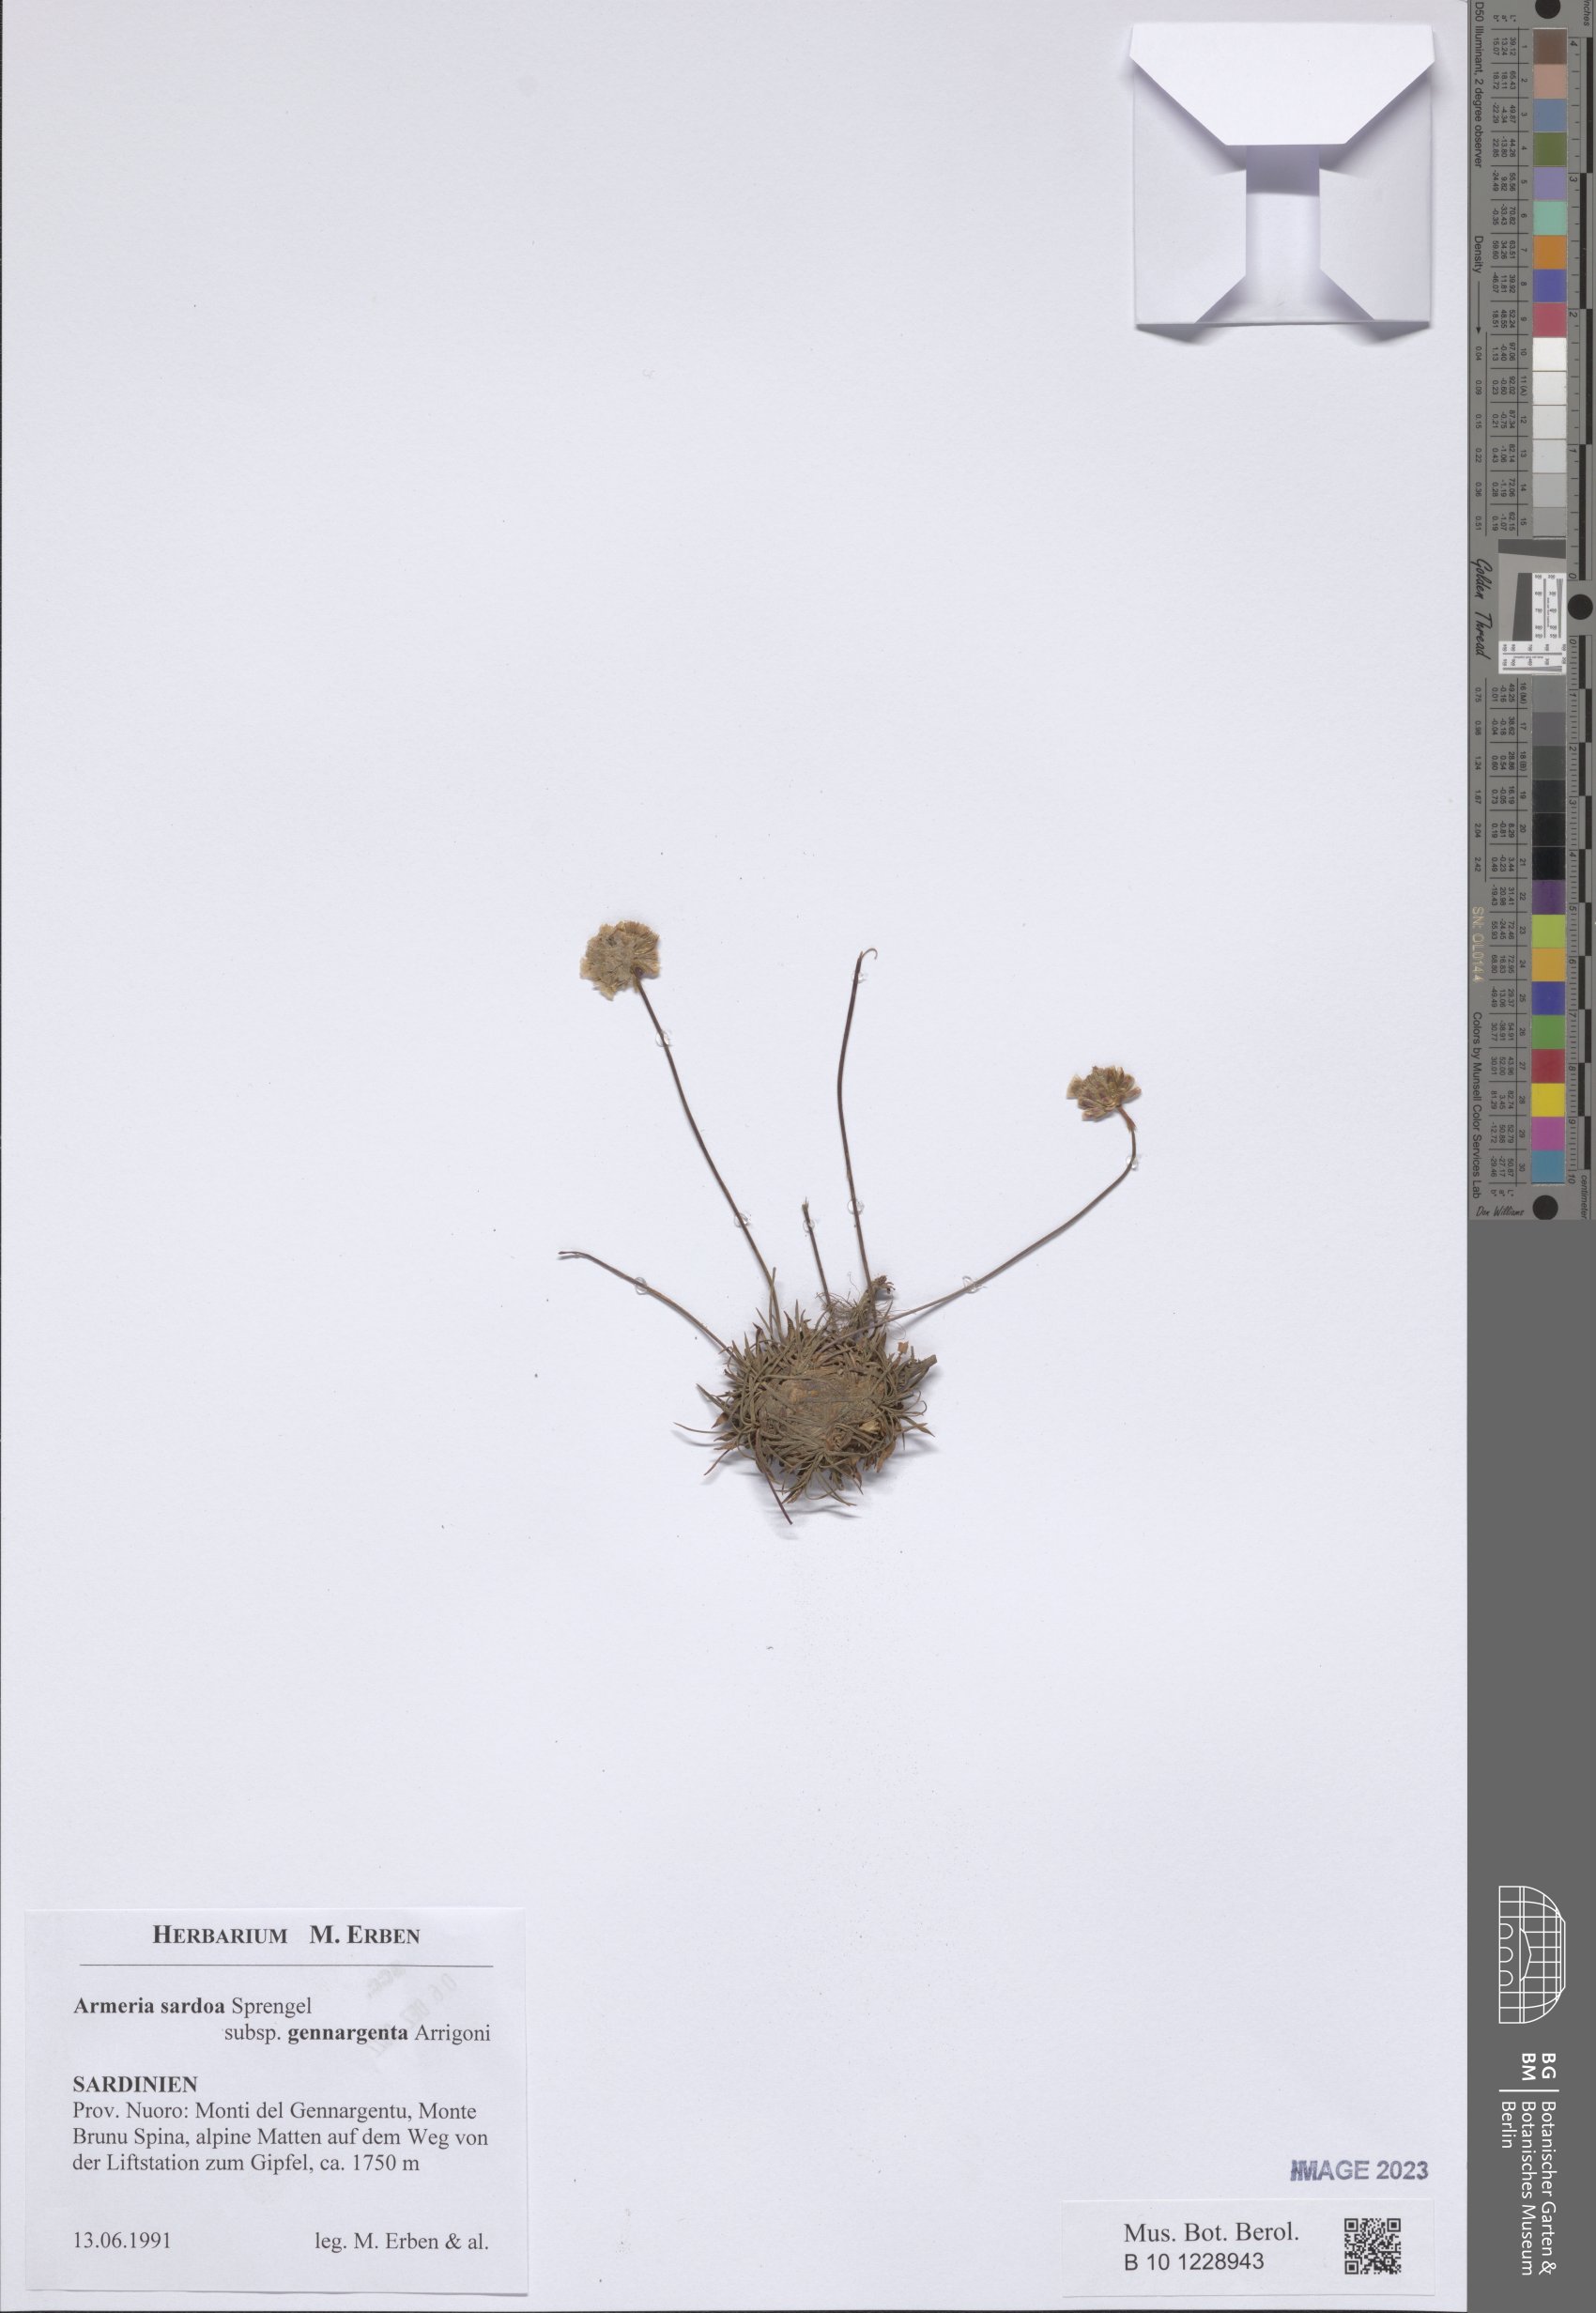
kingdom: Plantae
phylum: Tracheophyta
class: Magnoliopsida
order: Caryophyllales
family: Plumbaginaceae
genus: Armeria
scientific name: Armeria sardoa
